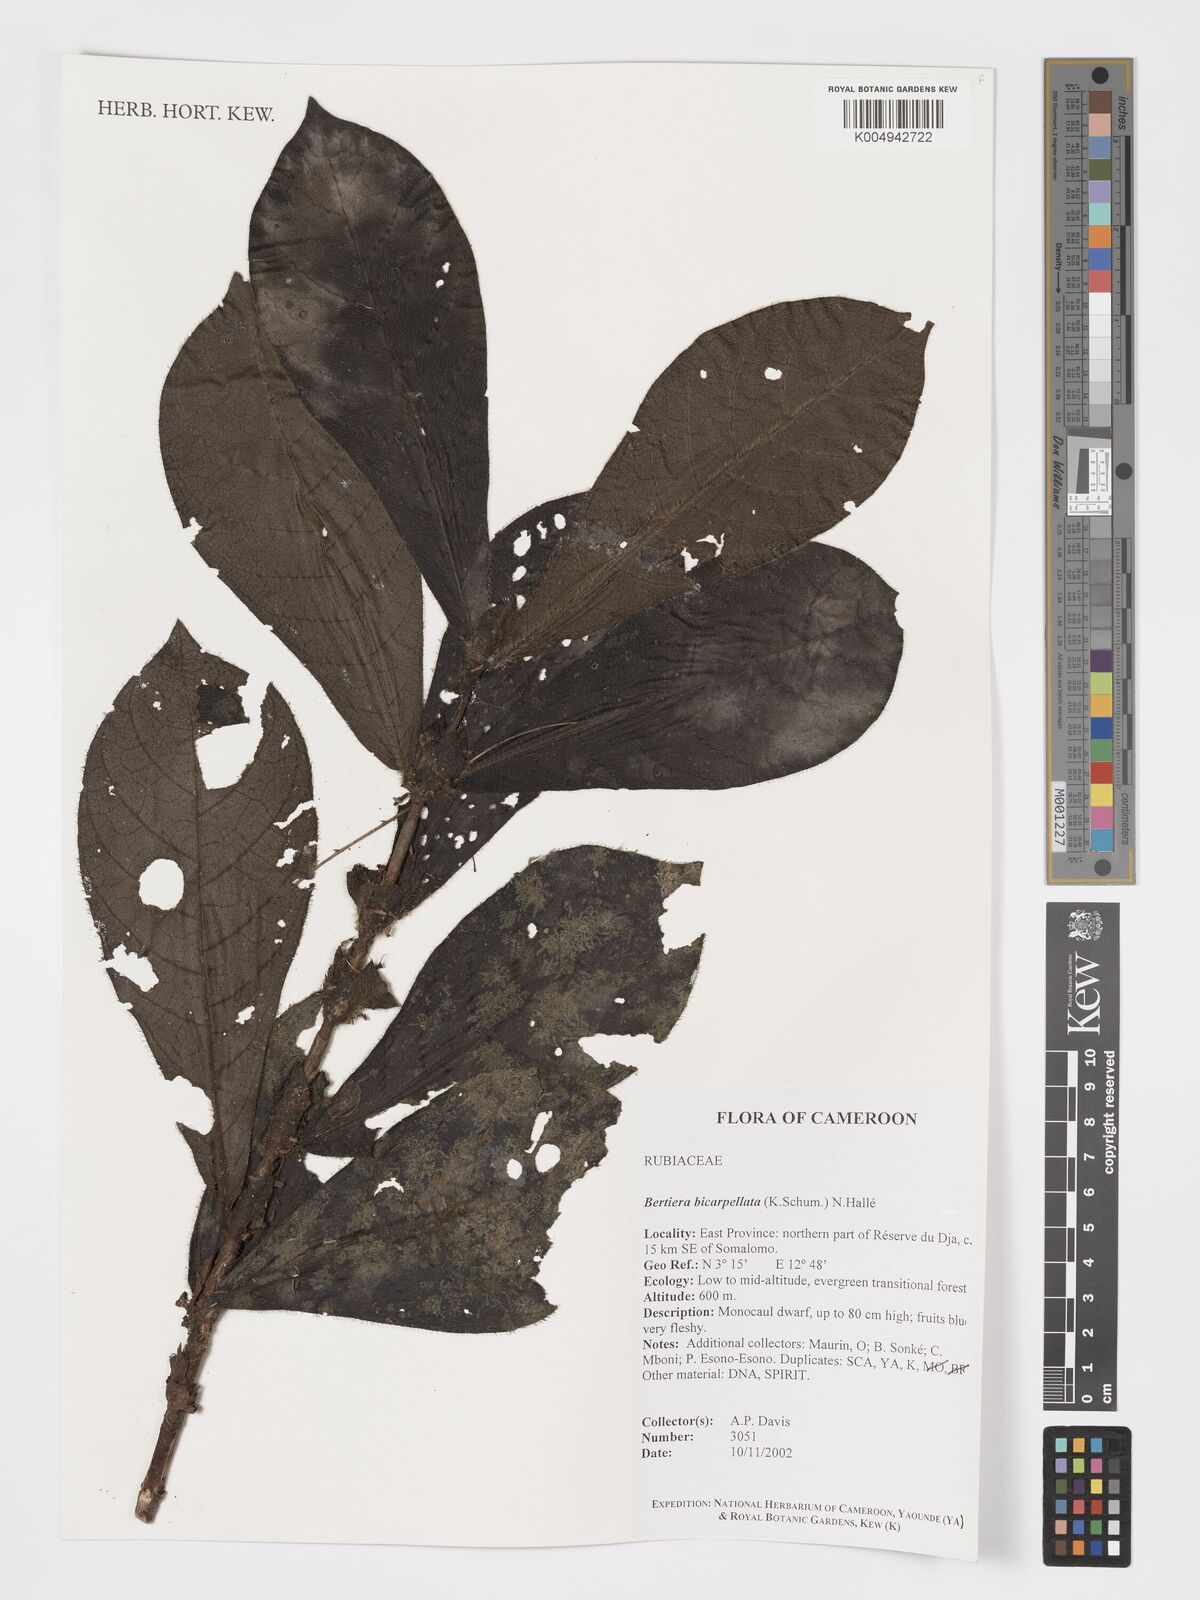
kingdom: Plantae
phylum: Tracheophyta
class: Magnoliopsida
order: Gentianales
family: Rubiaceae
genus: Bertiera
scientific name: Bertiera bicarpellata
